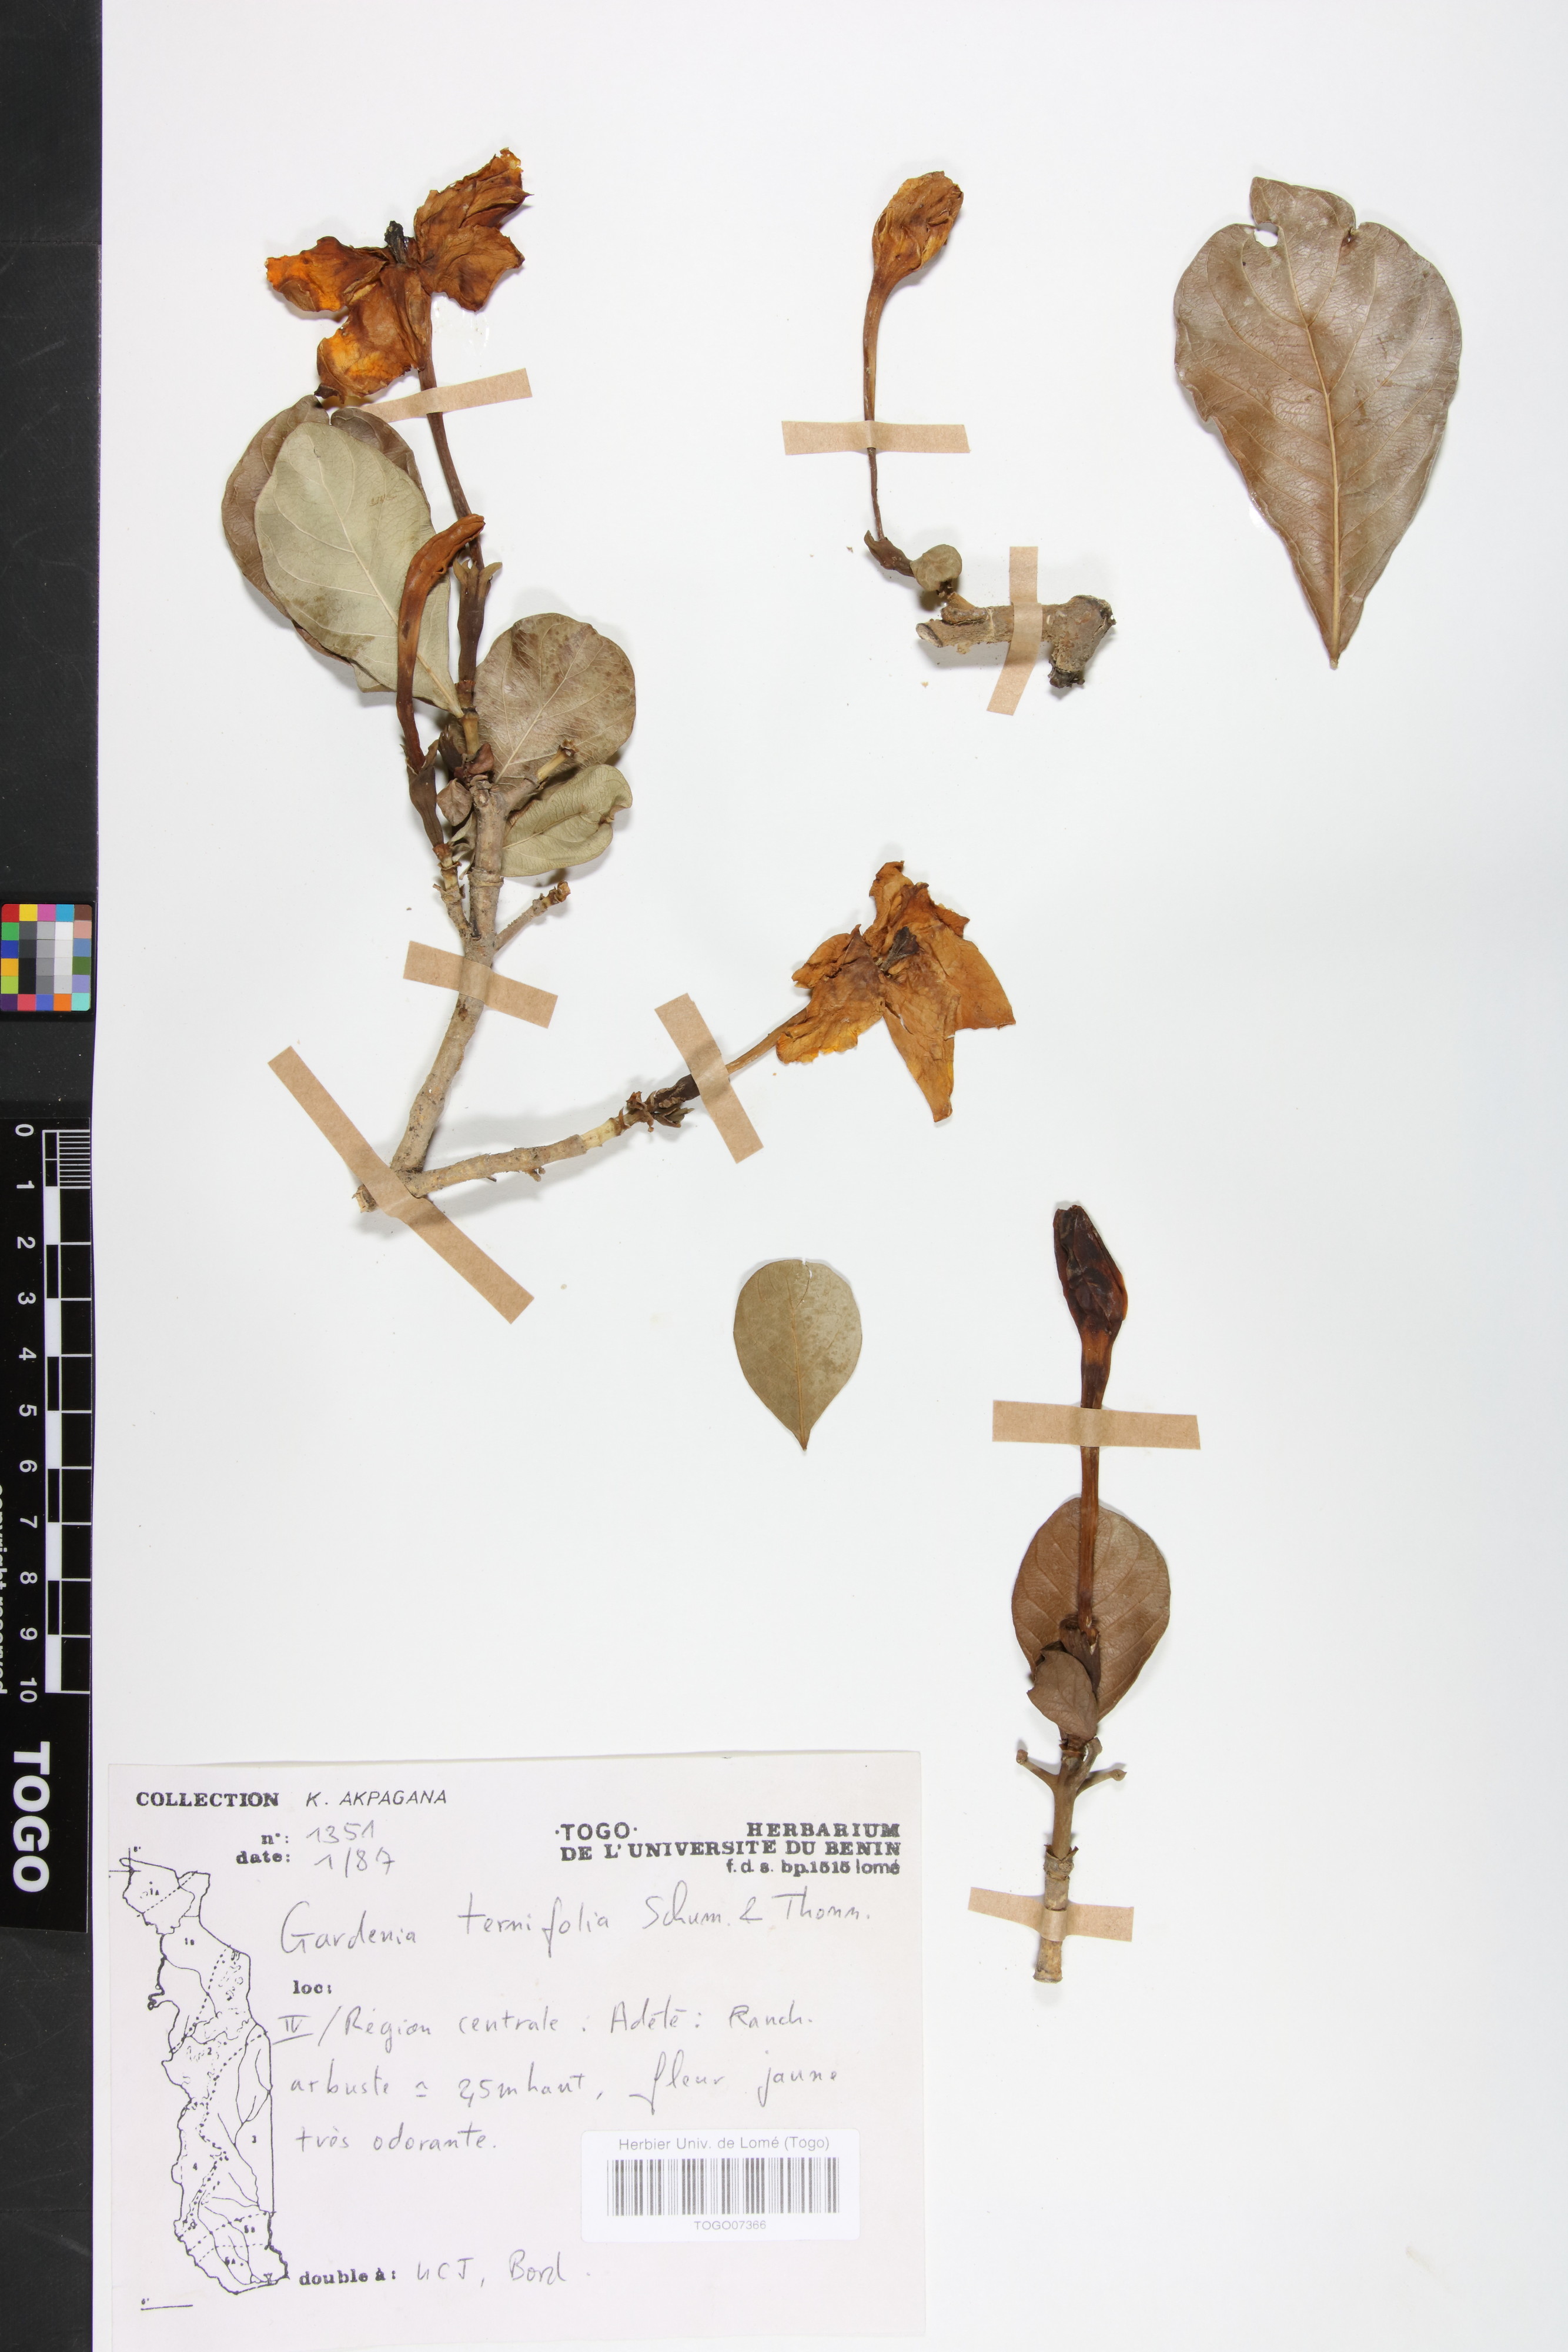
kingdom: Plantae
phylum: Tracheophyta
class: Magnoliopsida
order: Gentianales
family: Rubiaceae
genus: Gardenia
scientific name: Gardenia ternifolia
